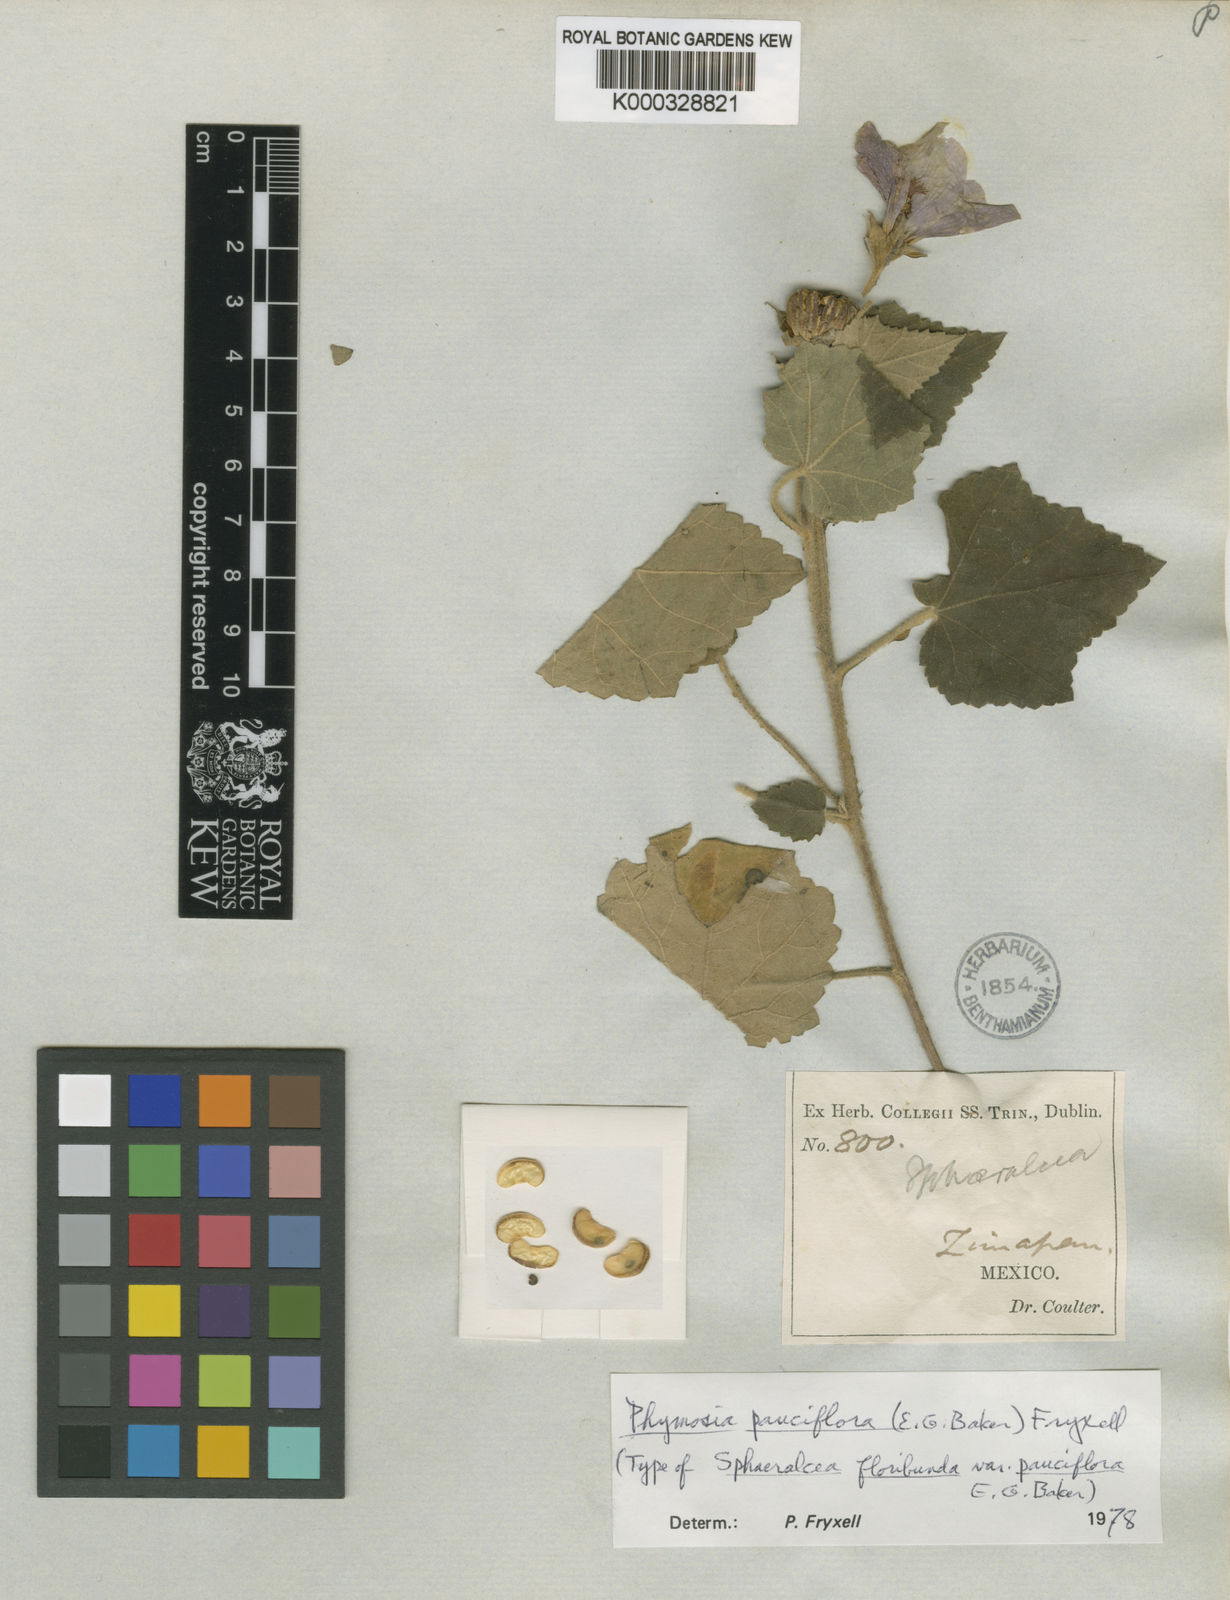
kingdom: Plantae
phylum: Tracheophyta
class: Magnoliopsida
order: Malvales
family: Malvaceae
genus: Phymosia
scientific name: Phymosia pauciflora
